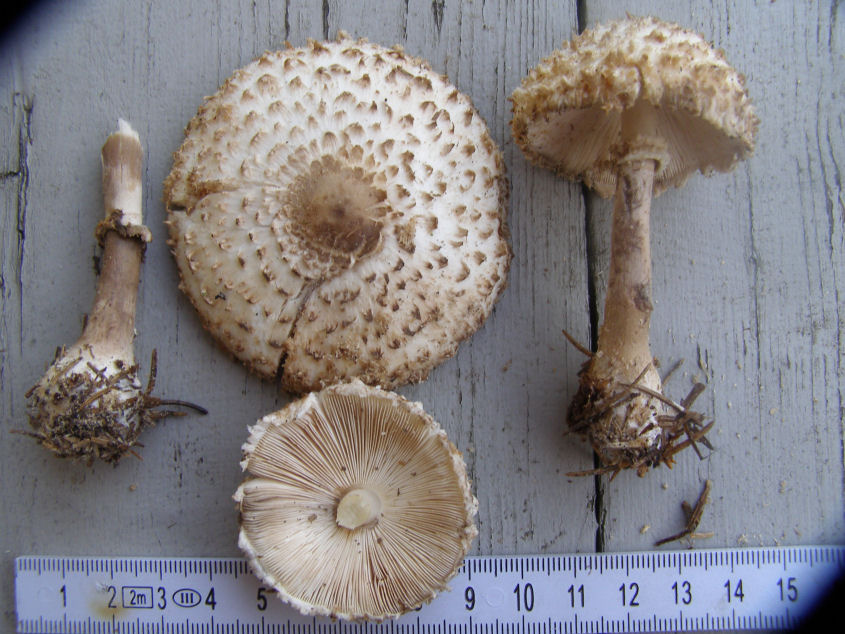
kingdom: Fungi
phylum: Basidiomycota
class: Agaricomycetes
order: Agaricales
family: Agaricaceae
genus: Leucoagaricus
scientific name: Leucoagaricus nympharum
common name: gran-silkehat
